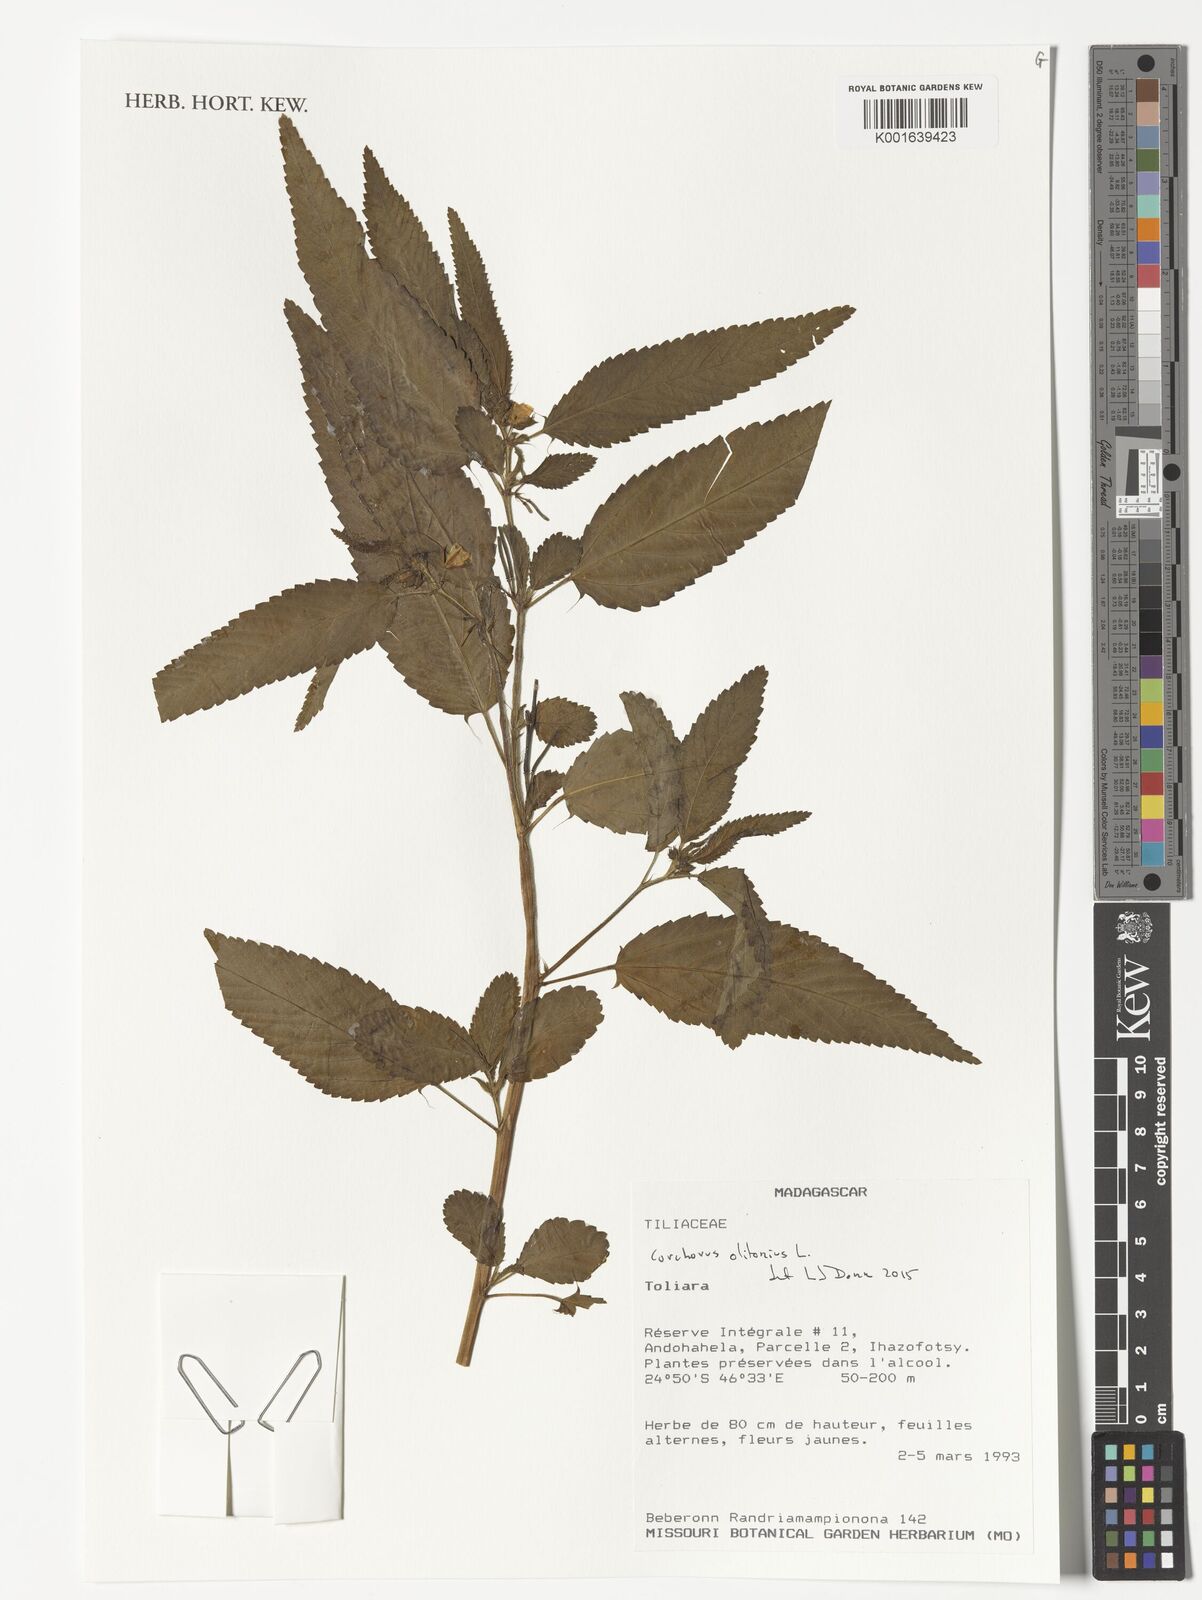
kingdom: Plantae
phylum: Tracheophyta
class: Magnoliopsida
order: Malvales
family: Malvaceae
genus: Corchorus
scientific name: Corchorus olitorius
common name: Tossa jute
